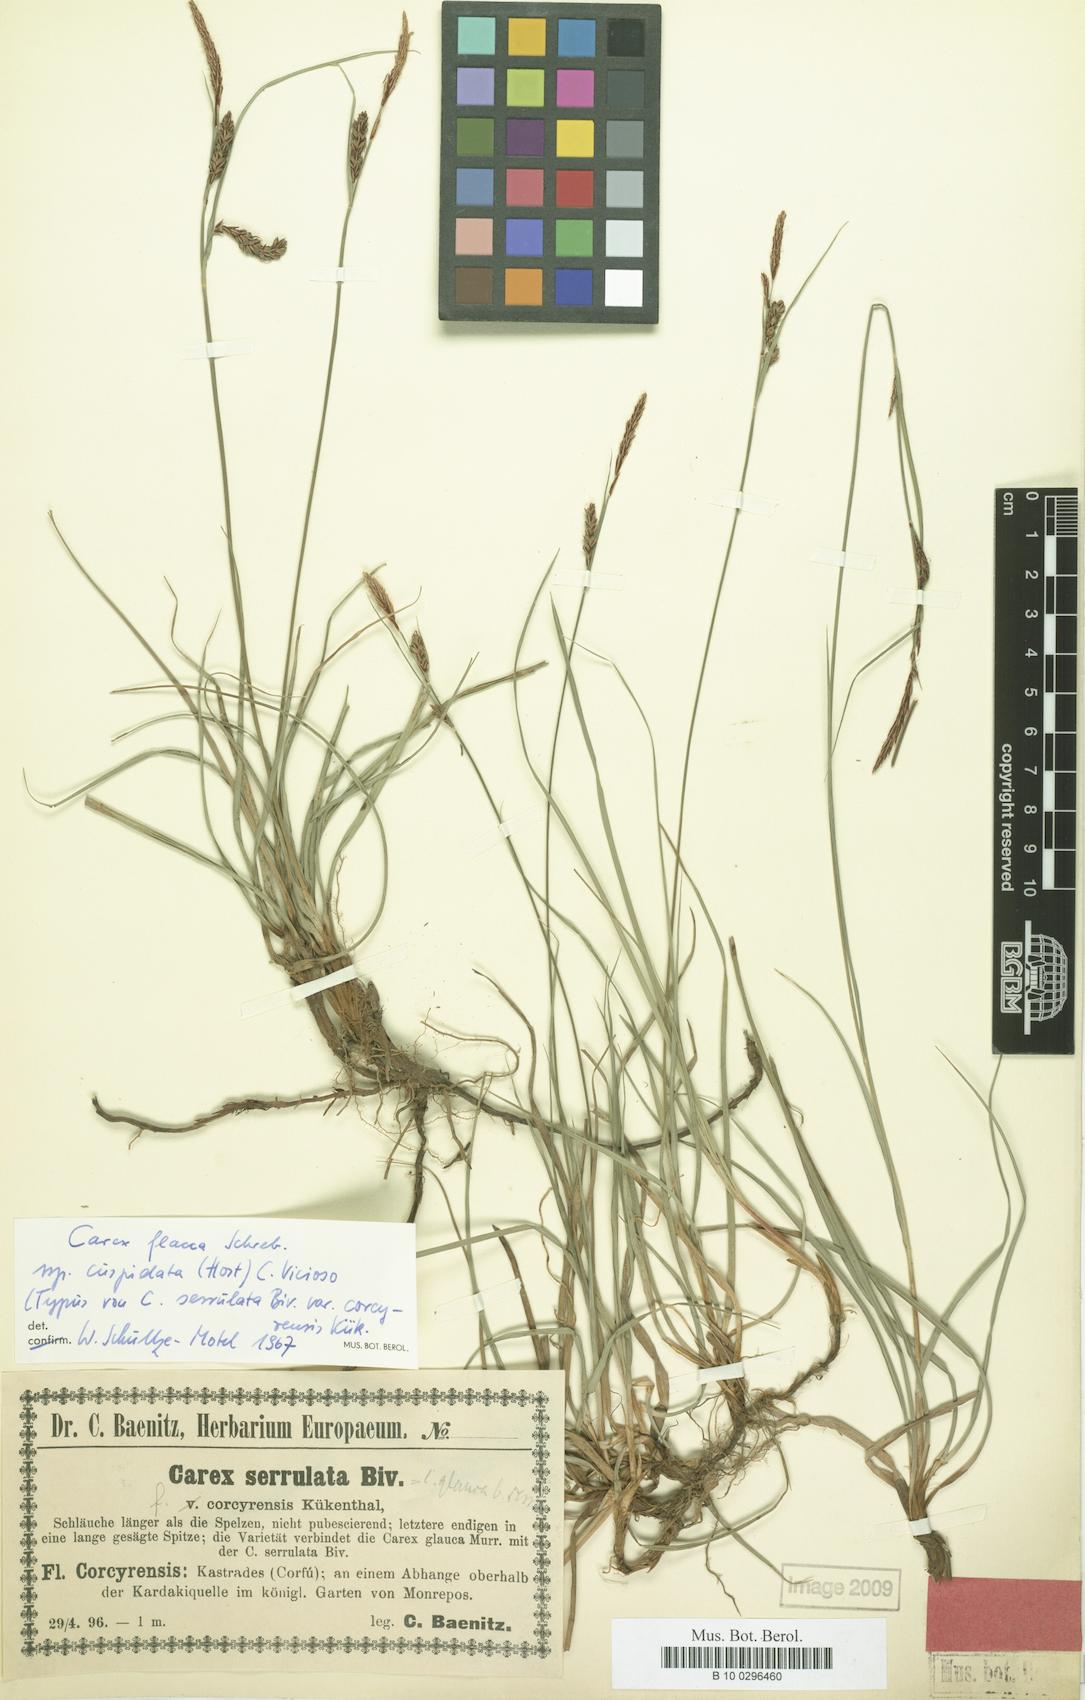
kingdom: Plantae
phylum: Tracheophyta
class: Liliopsida
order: Poales
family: Cyperaceae
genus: Carex
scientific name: Carex flacca
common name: Glaucous sedge
